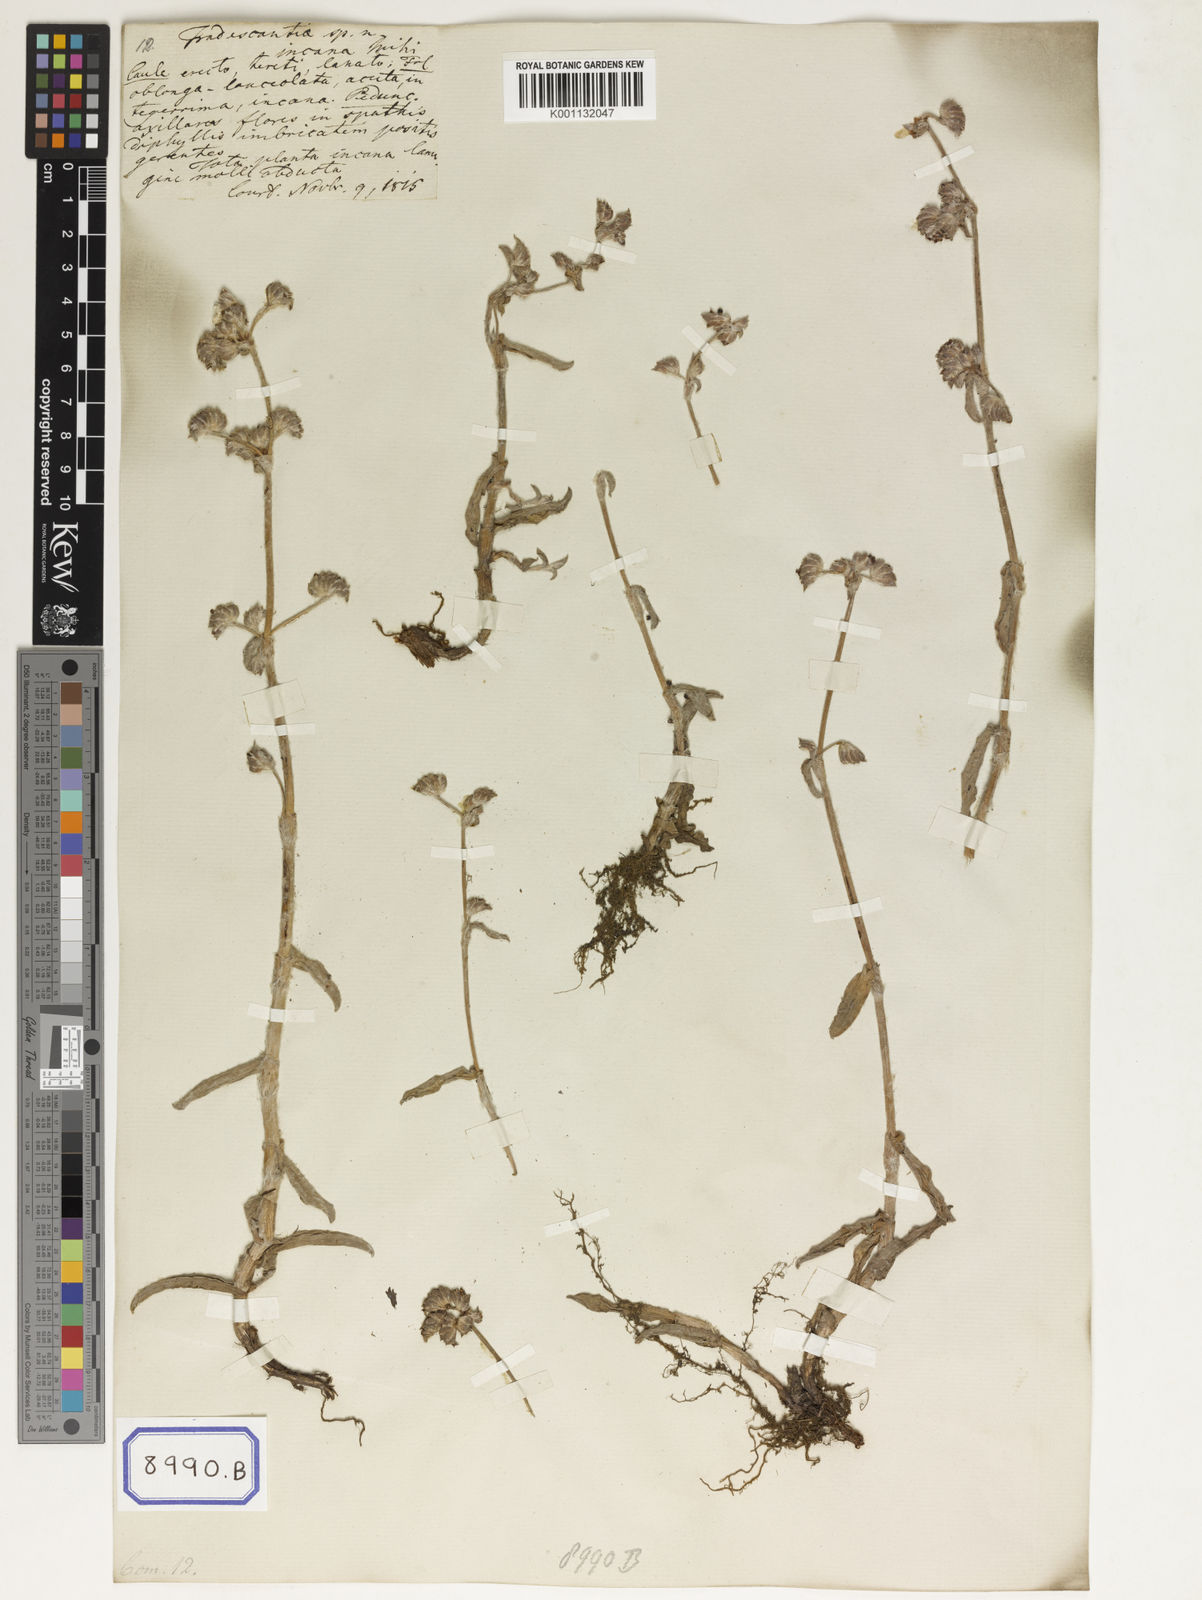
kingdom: Plantae
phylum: Tracheophyta
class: Liliopsida
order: Commelinales
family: Commelinaceae
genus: Cyanotis
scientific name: Cyanotis
